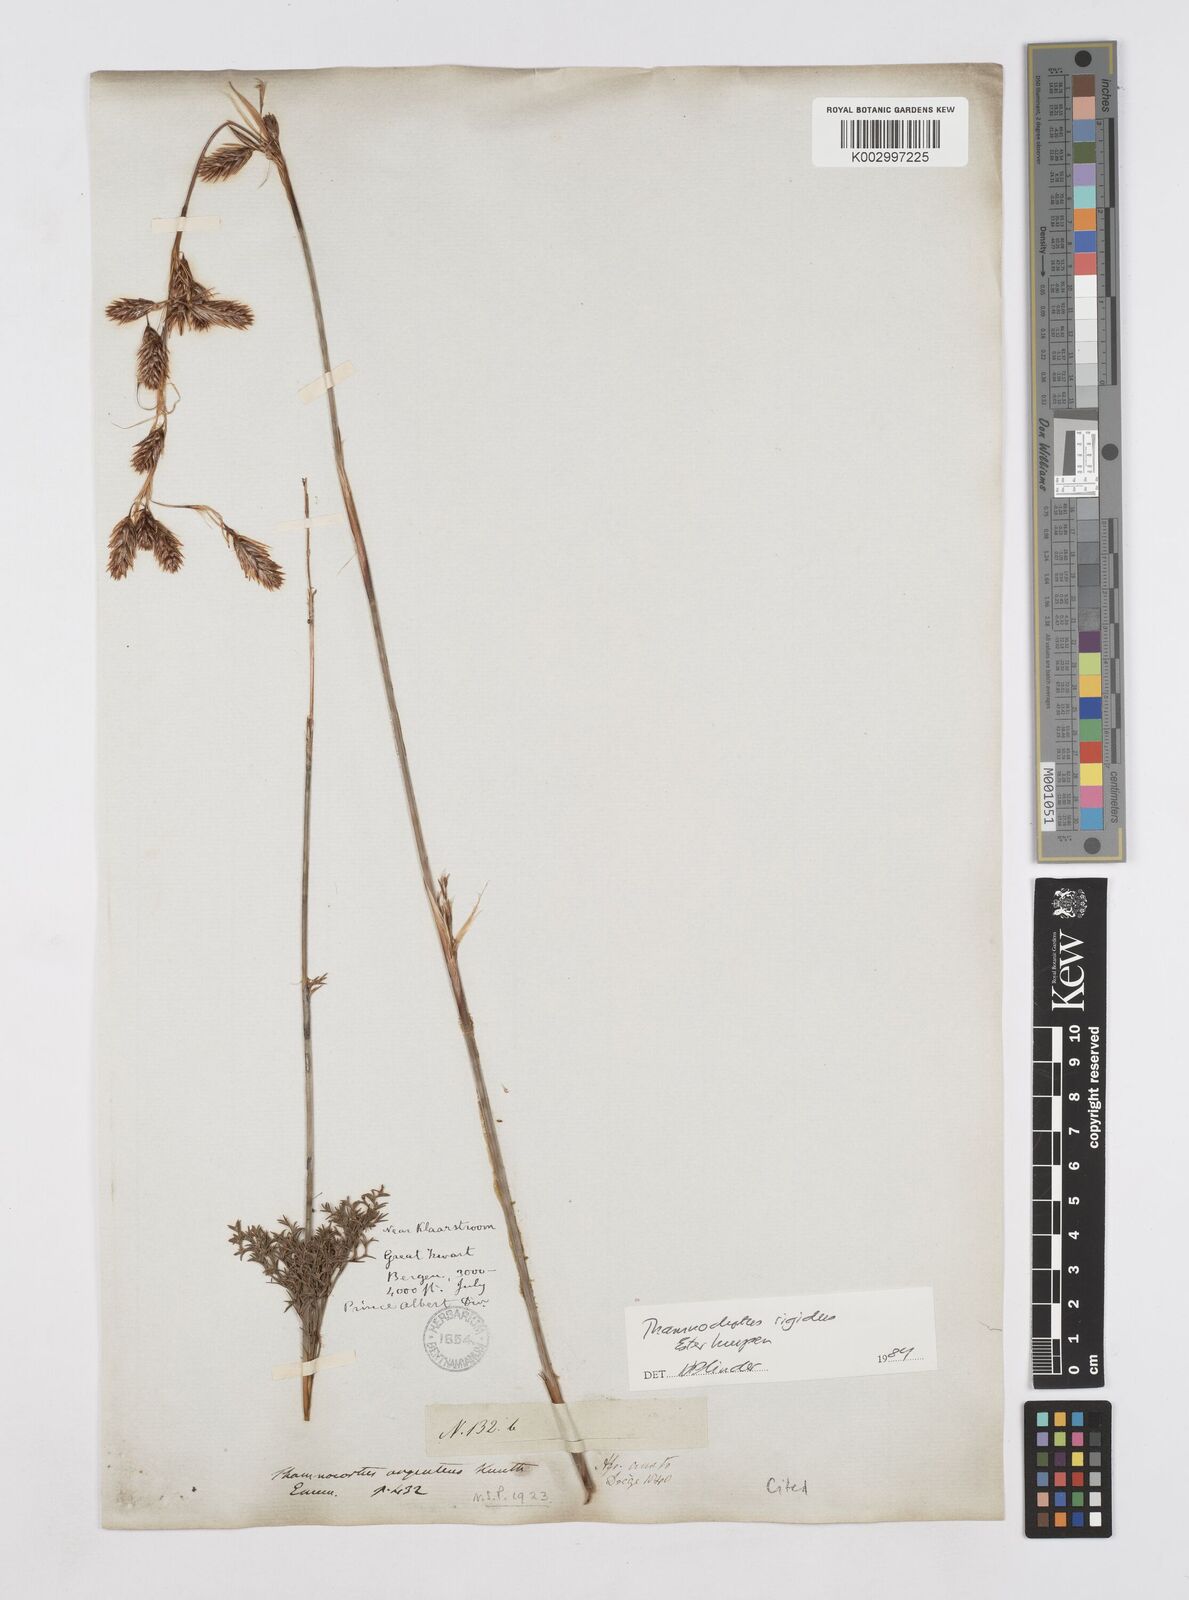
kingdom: Plantae
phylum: Tracheophyta
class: Liliopsida
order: Poales
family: Restionaceae
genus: Thamnochortus
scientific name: Thamnochortus rigidus
